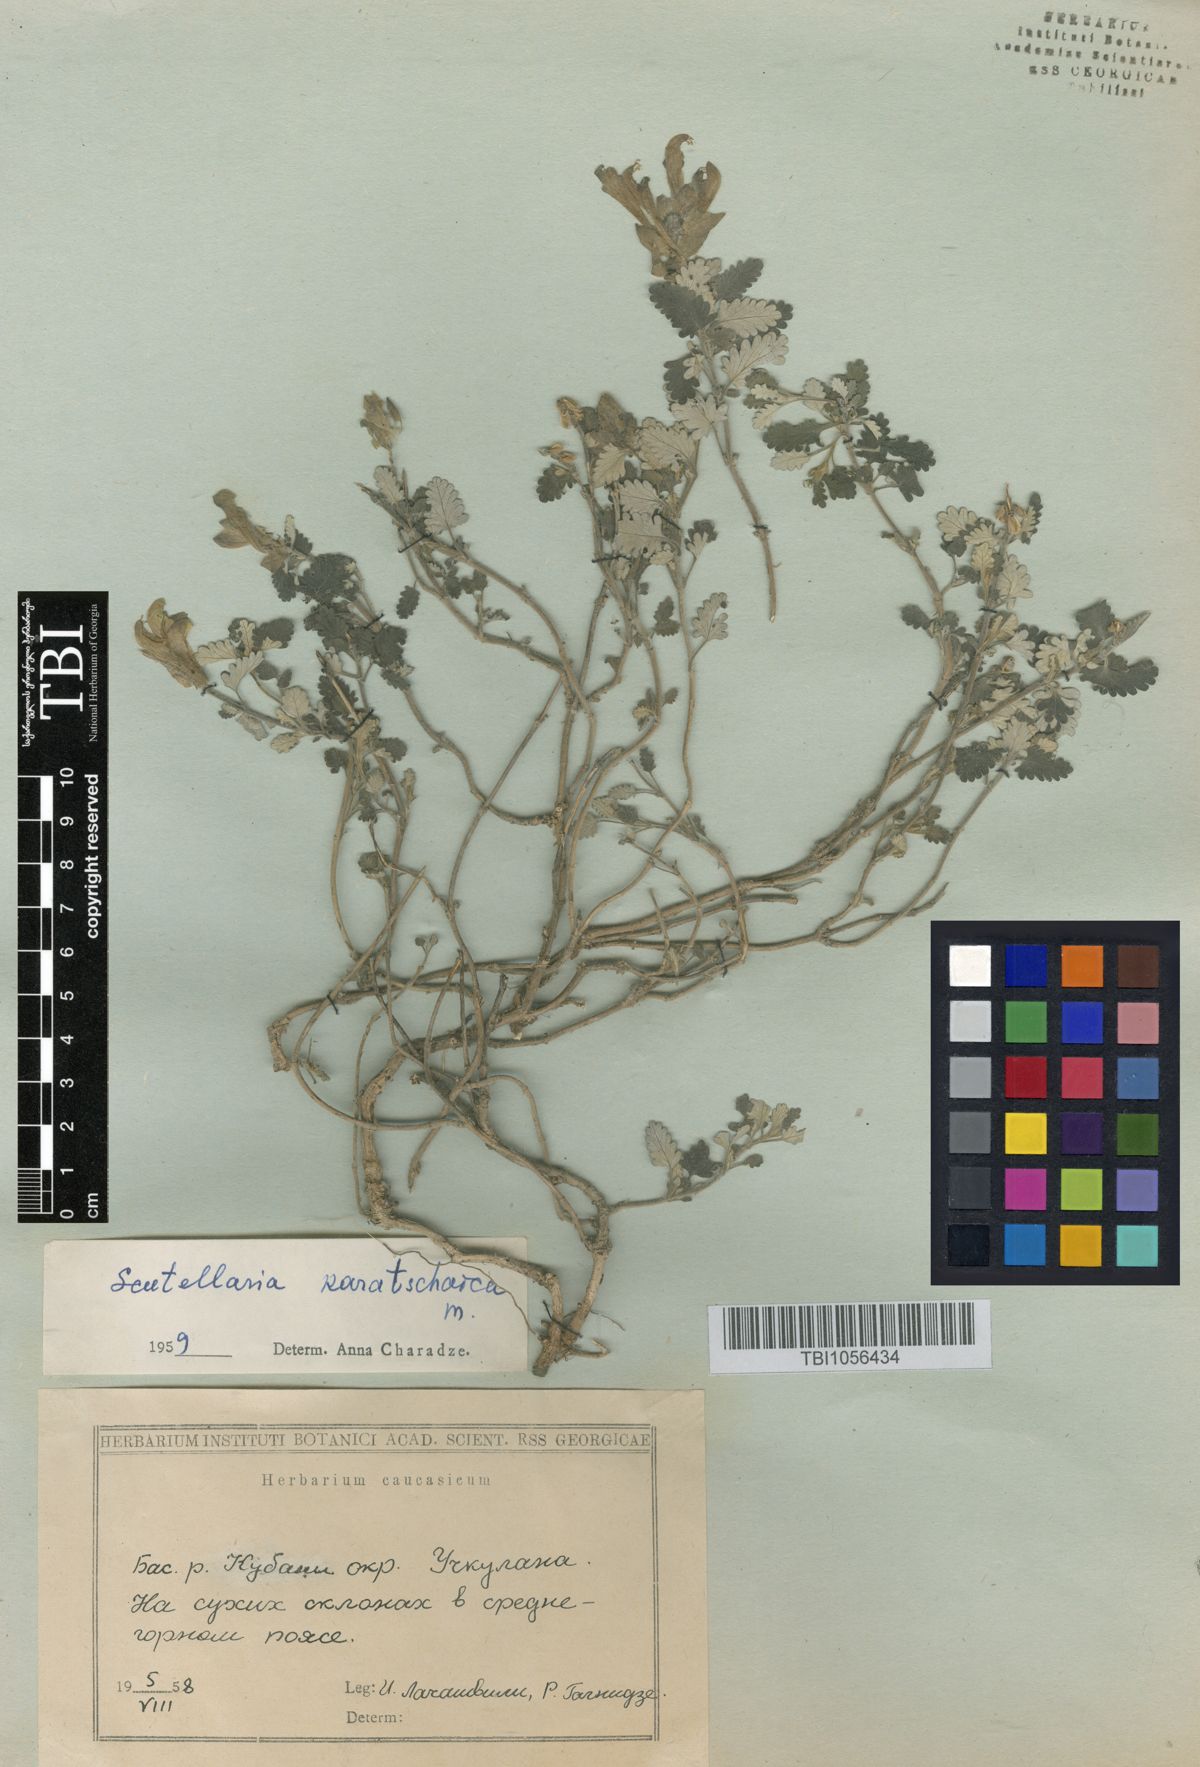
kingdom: Plantae
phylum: Tracheophyta
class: Magnoliopsida
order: Lamiales
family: Lamiaceae
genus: Scutellaria
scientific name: Scutellaria orientalis
